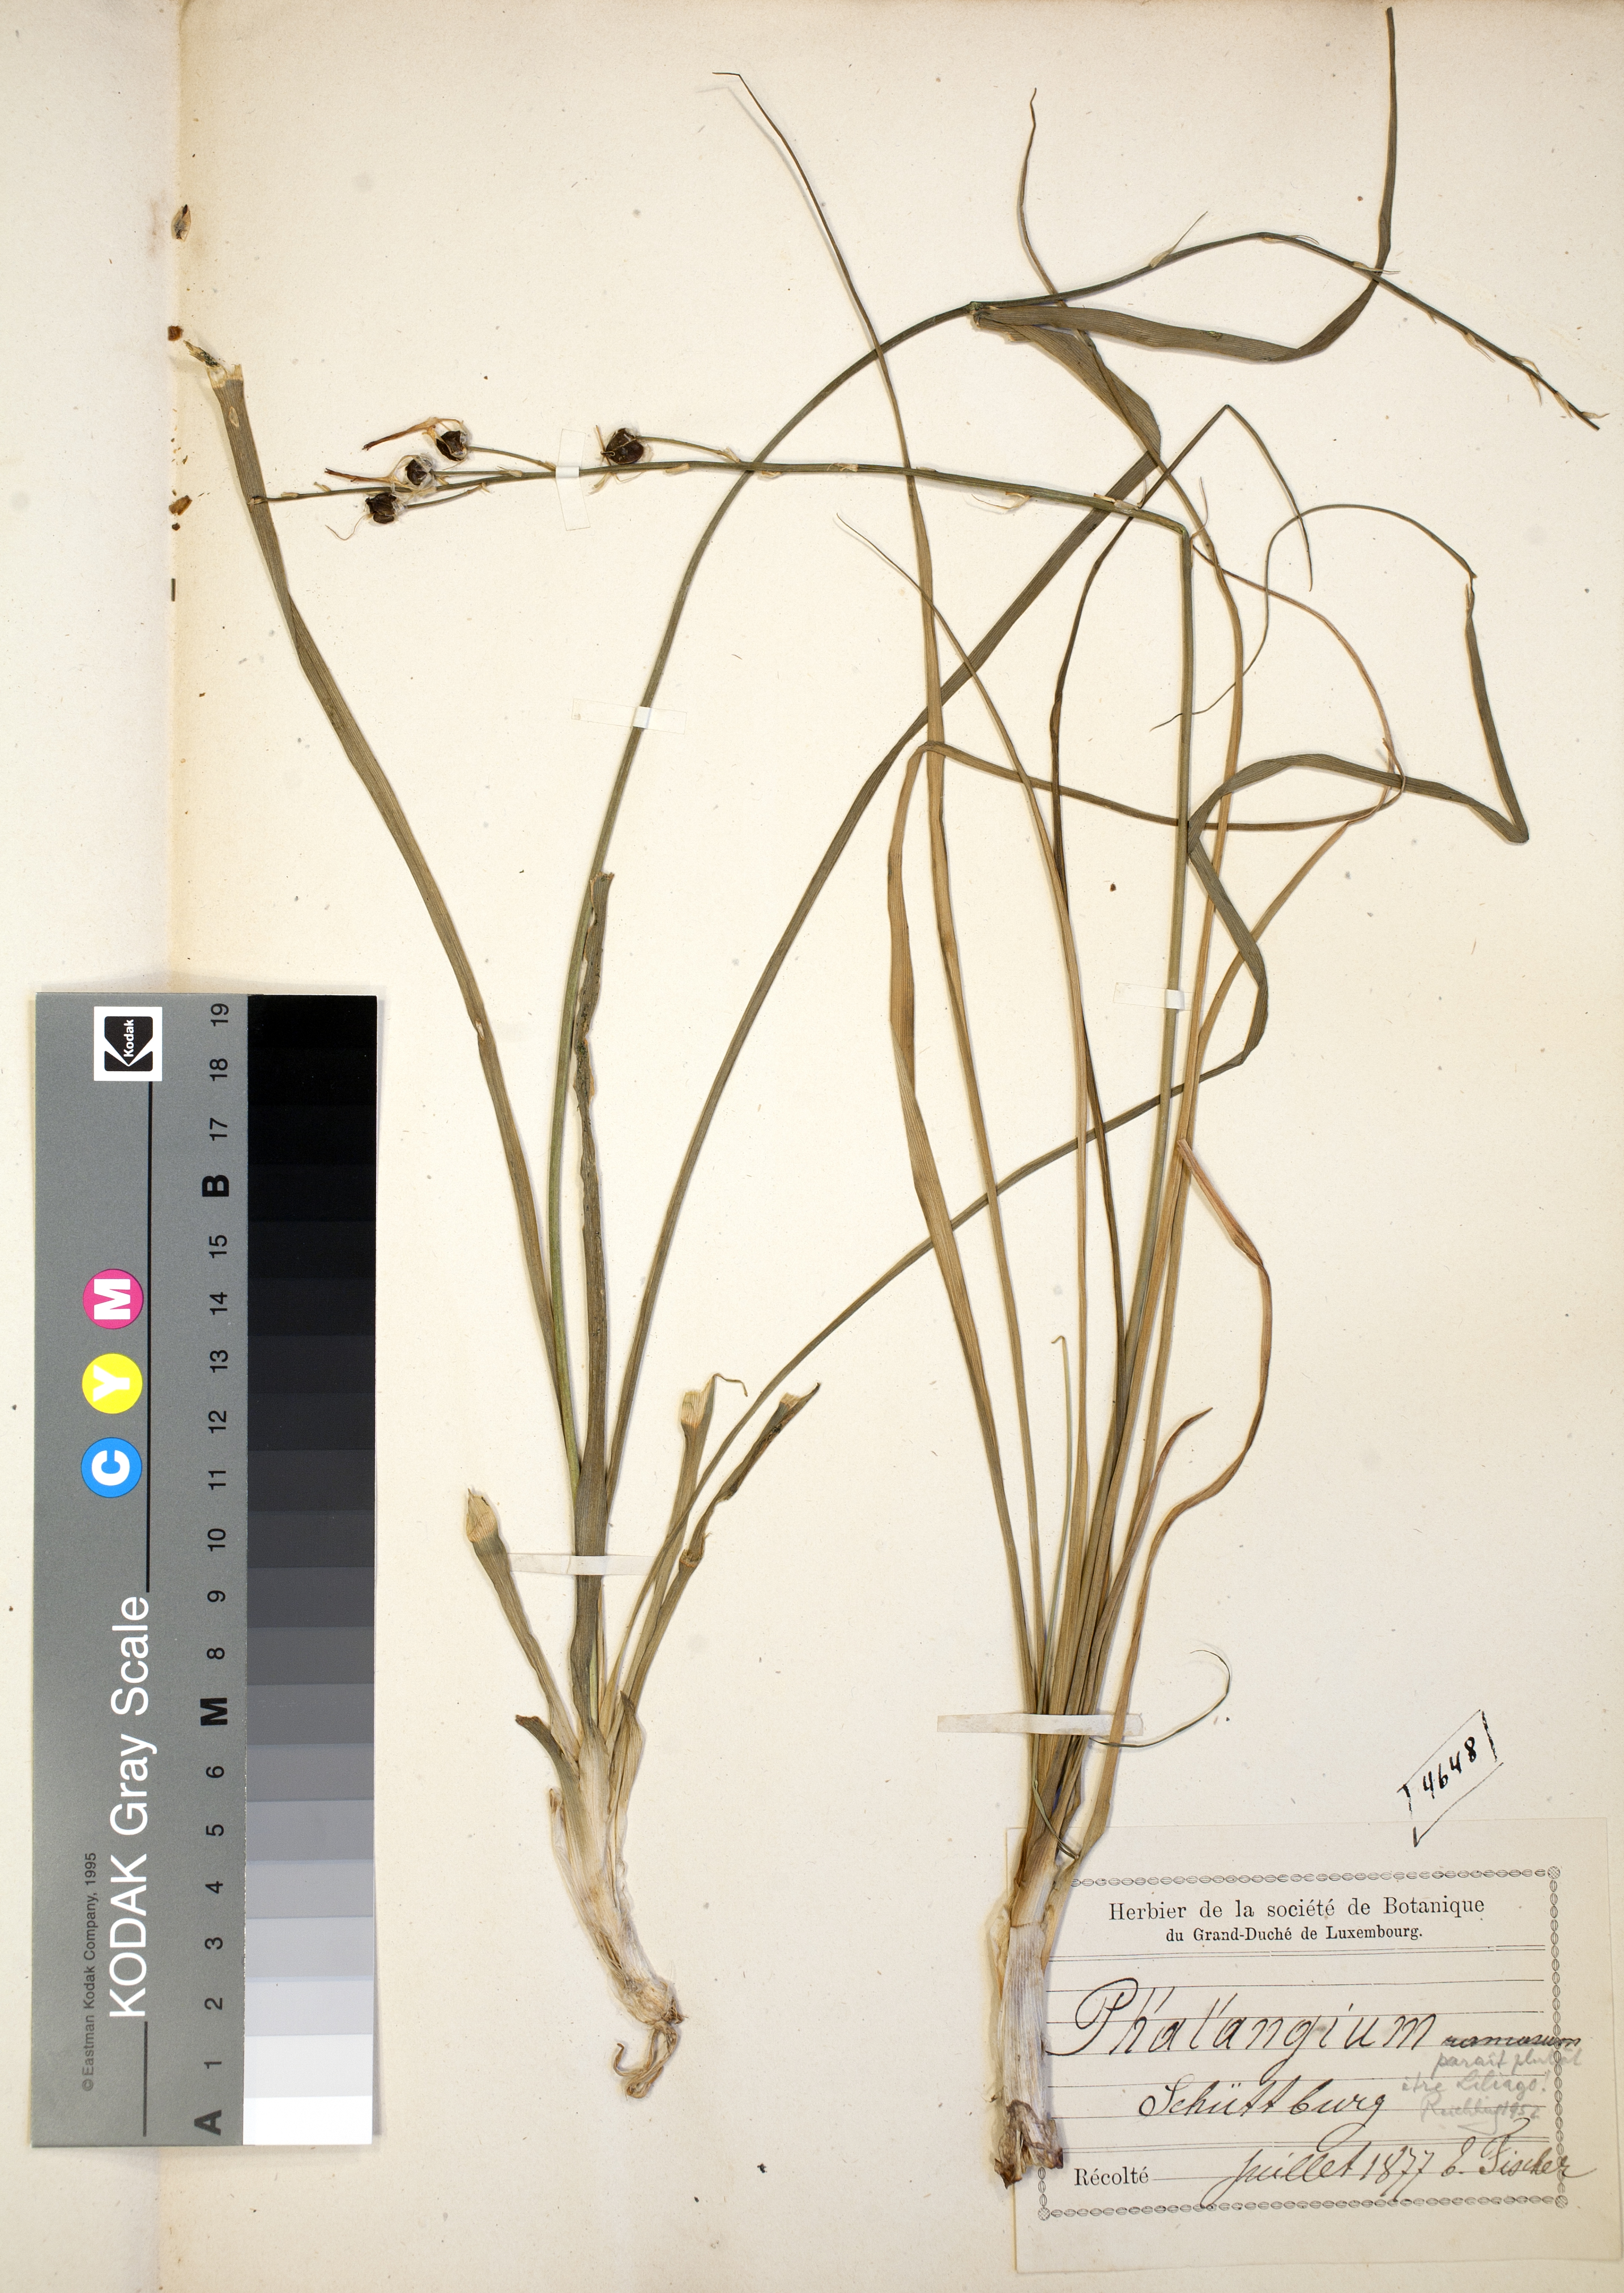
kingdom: Plantae
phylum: Tracheophyta
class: Liliopsida
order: Asparagales
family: Asparagaceae
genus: Anthericum
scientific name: Anthericum liliago
